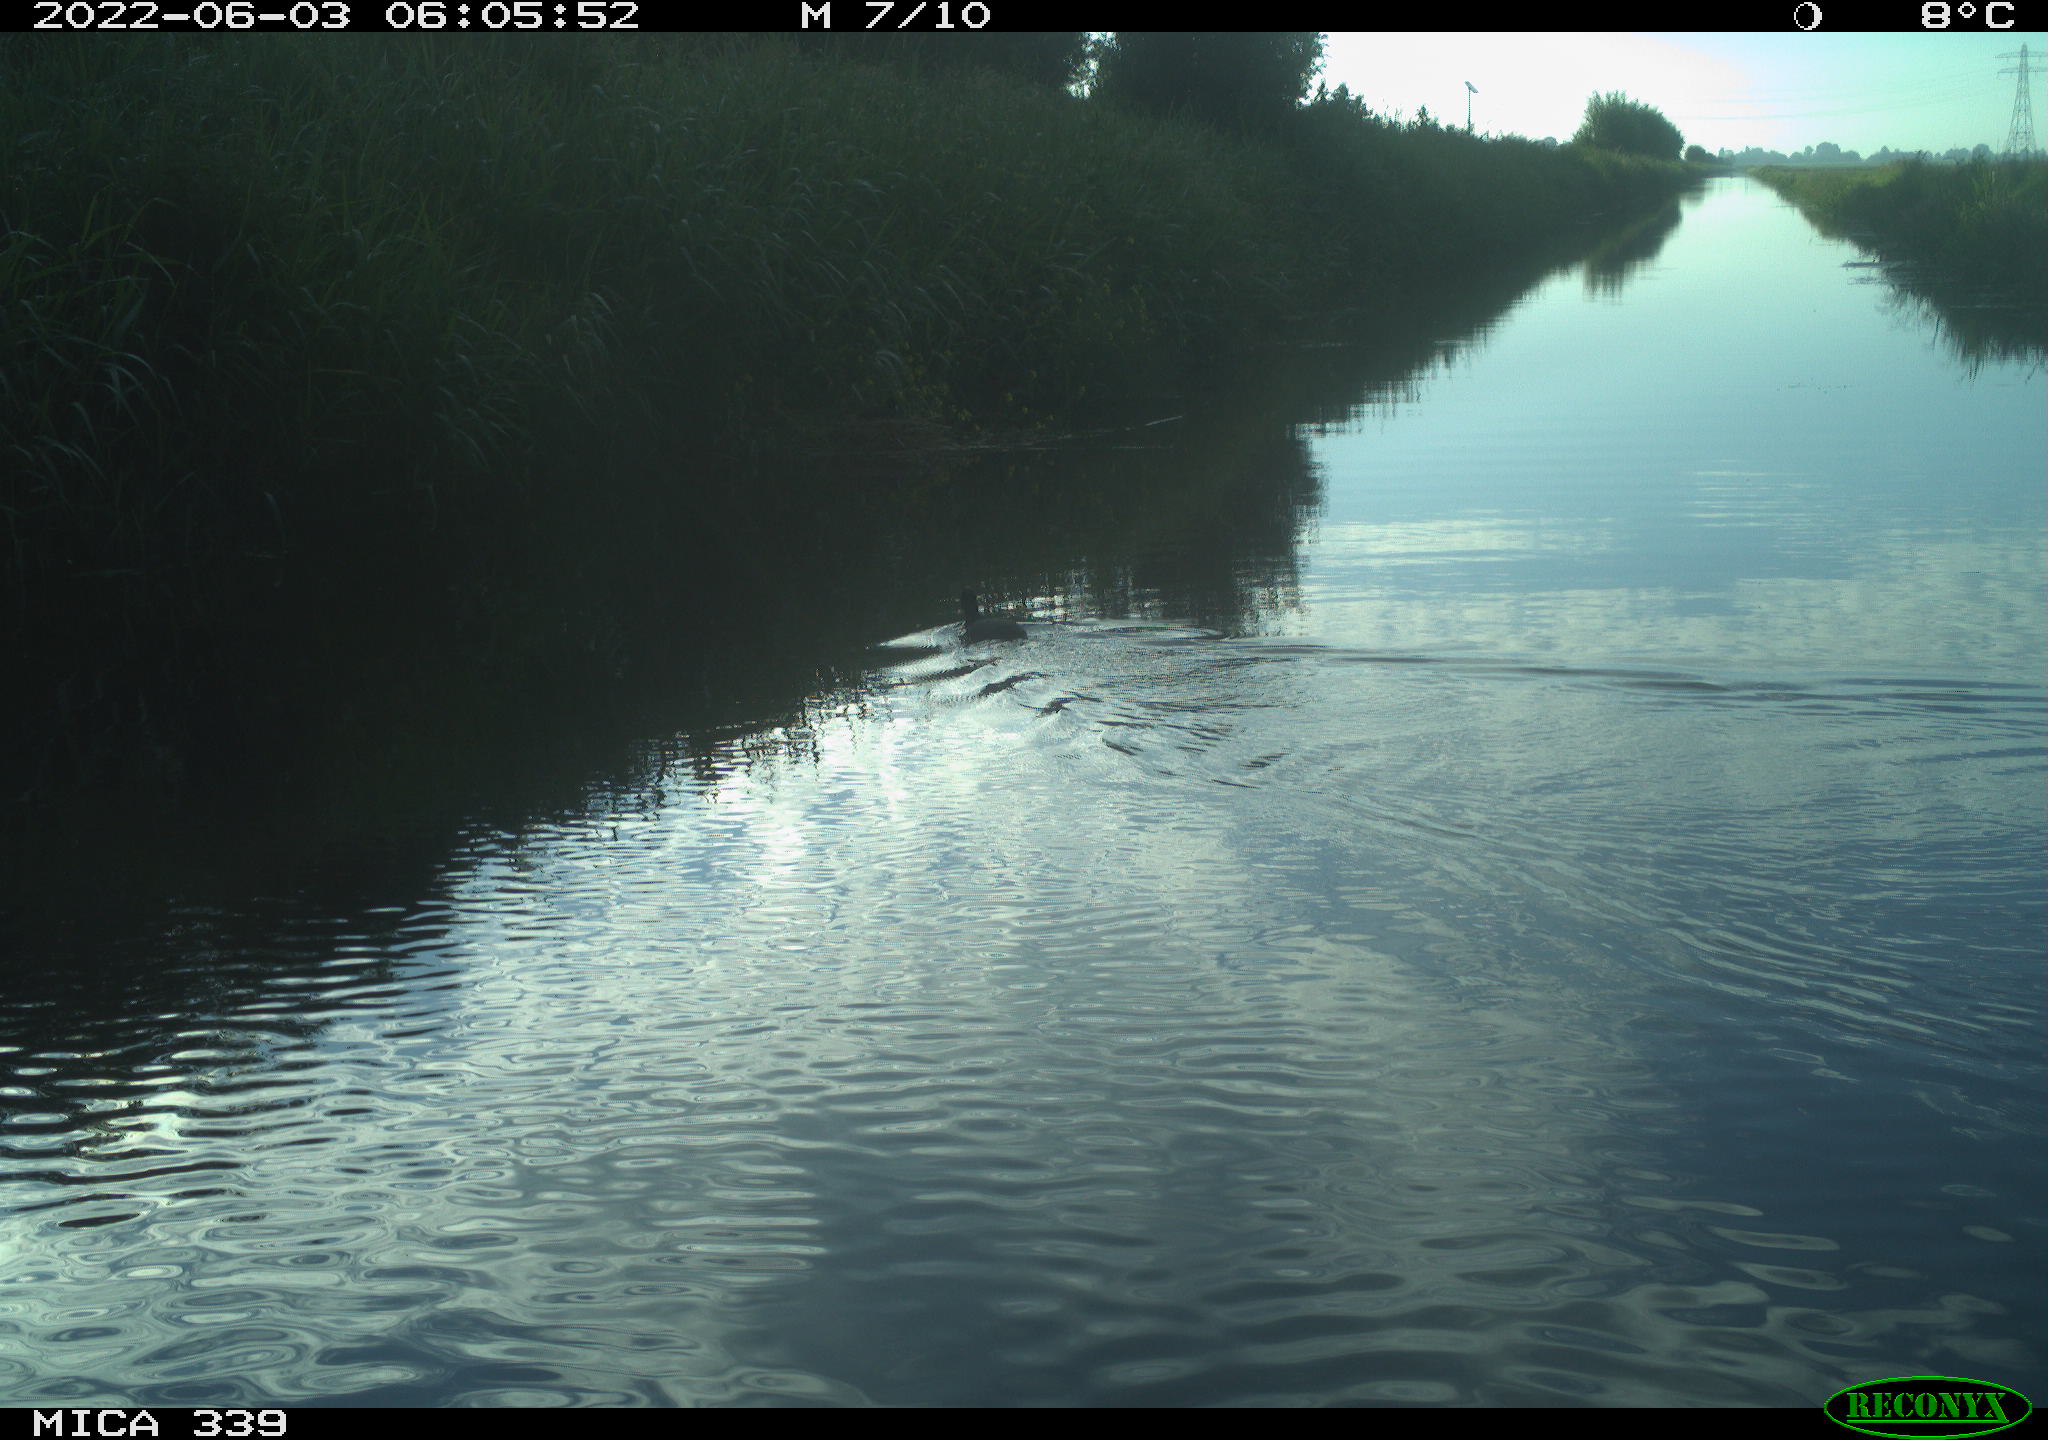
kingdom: Animalia
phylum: Chordata
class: Aves
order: Gruiformes
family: Rallidae
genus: Fulica
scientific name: Fulica atra
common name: Eurasian coot
